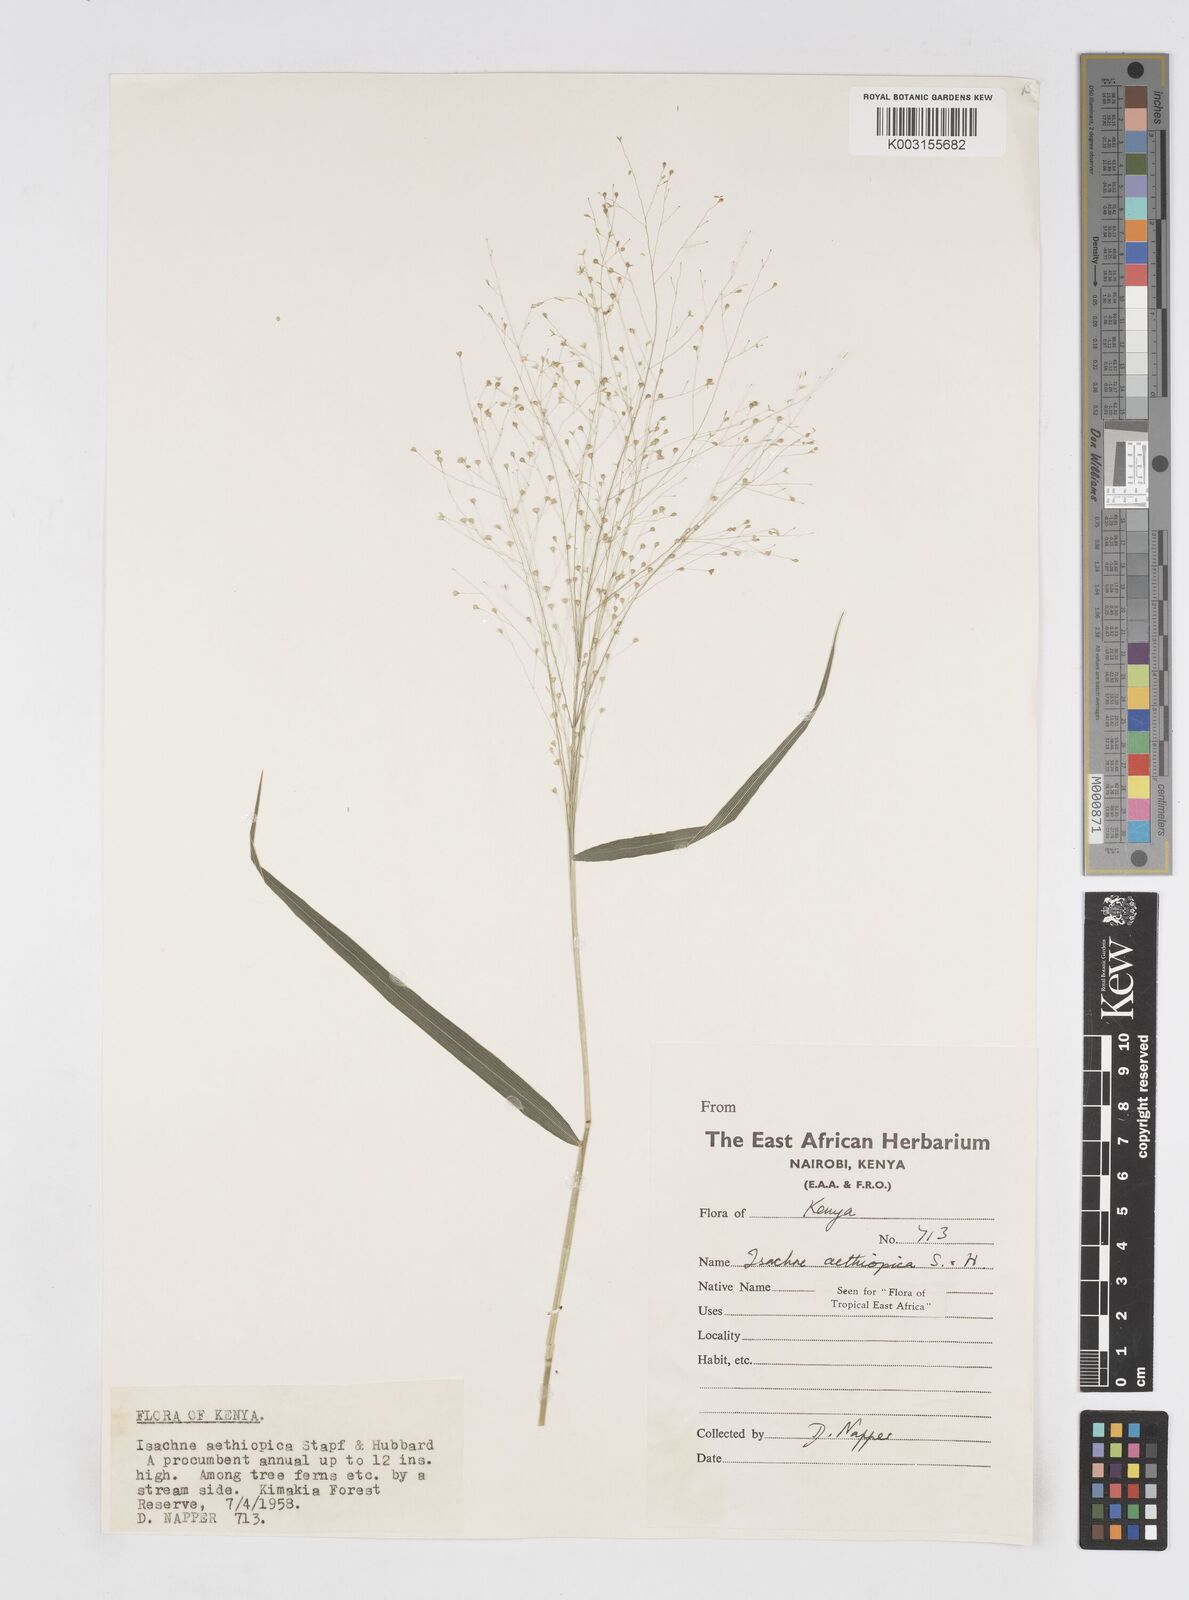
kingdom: Plantae
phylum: Tracheophyta
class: Liliopsida
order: Poales
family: Poaceae
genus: Isachne
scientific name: Isachne mauritiana
